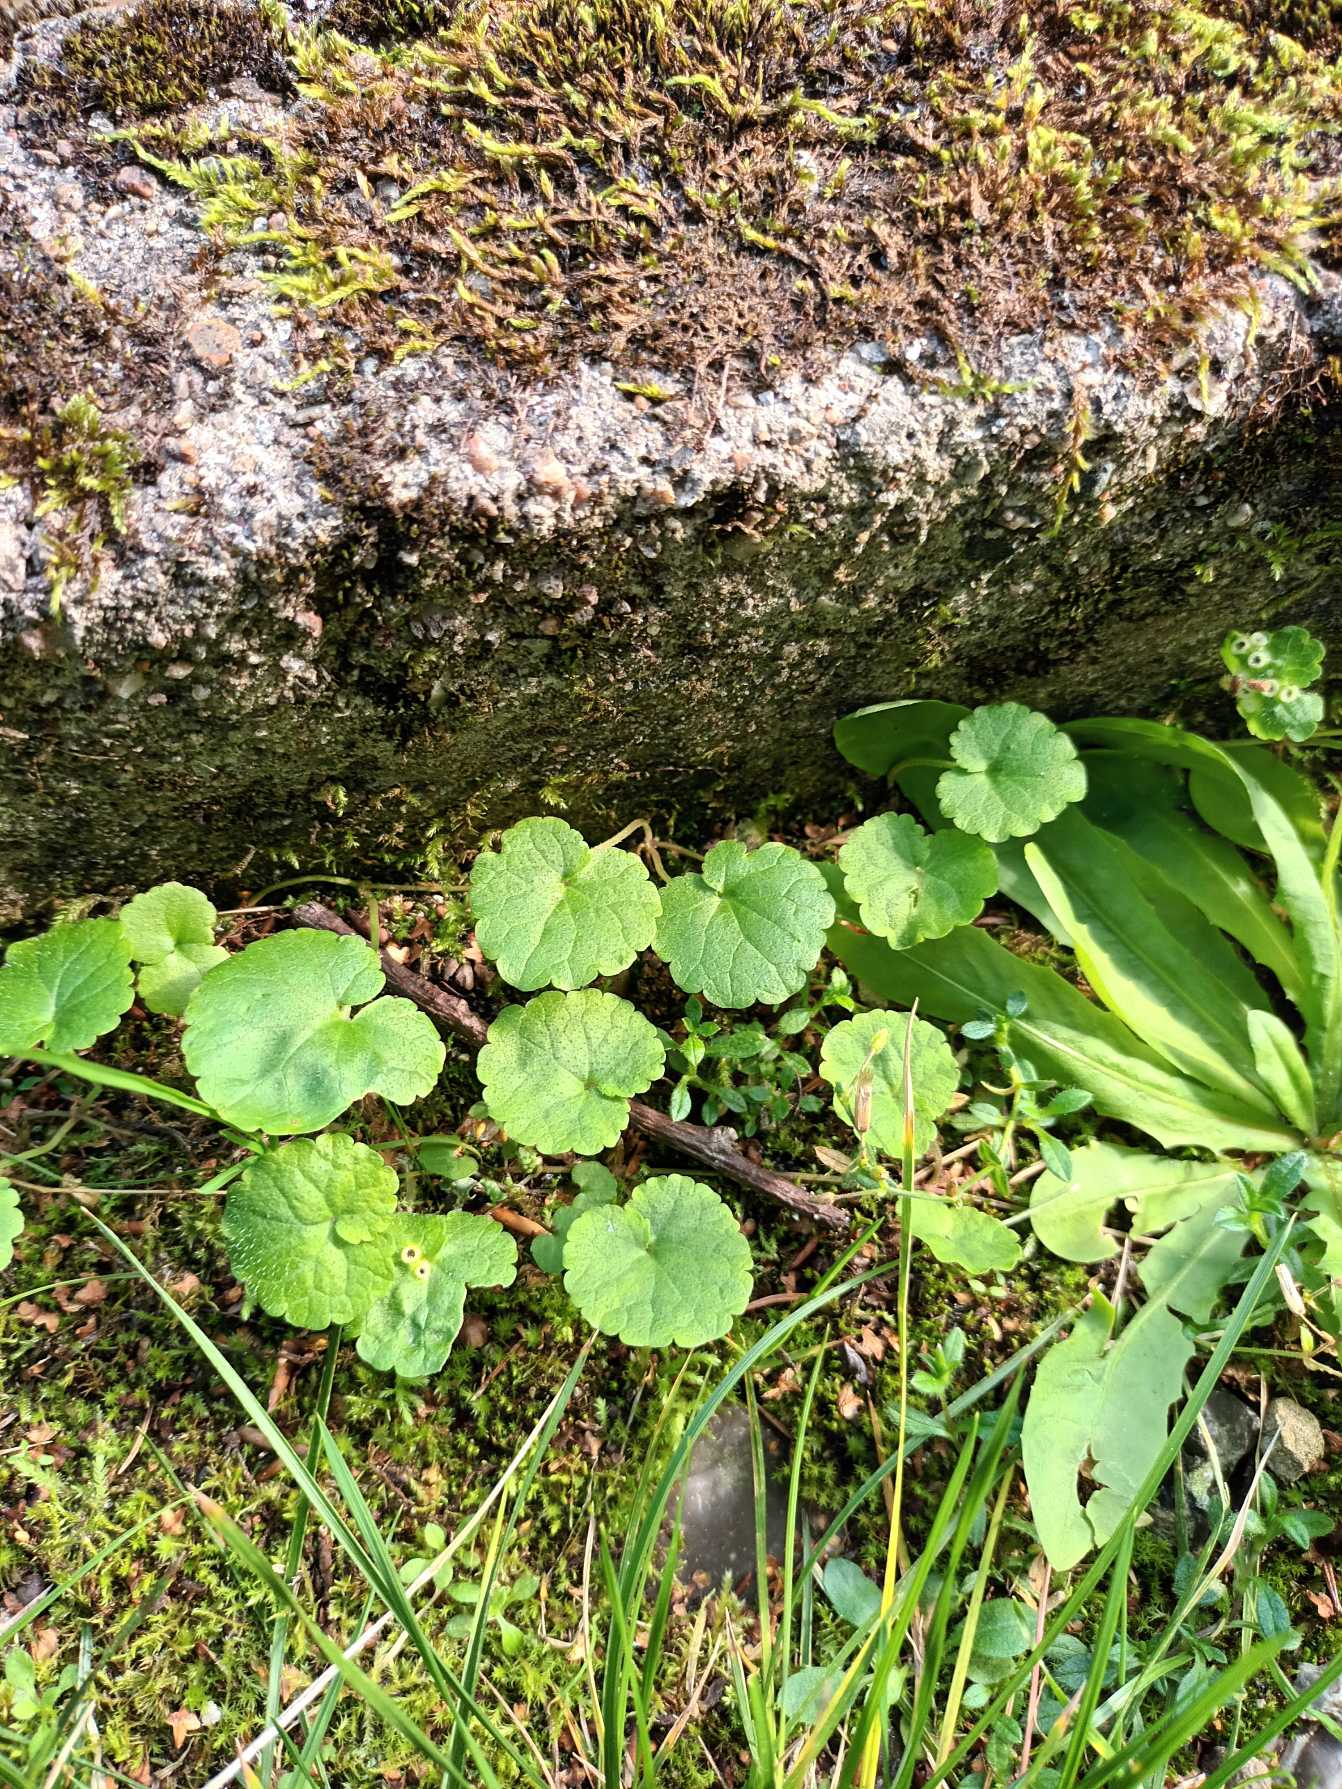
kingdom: Plantae
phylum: Tracheophyta
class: Magnoliopsida
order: Lamiales
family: Lamiaceae
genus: Glechoma
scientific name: Glechoma hederacea
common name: Korsknap
